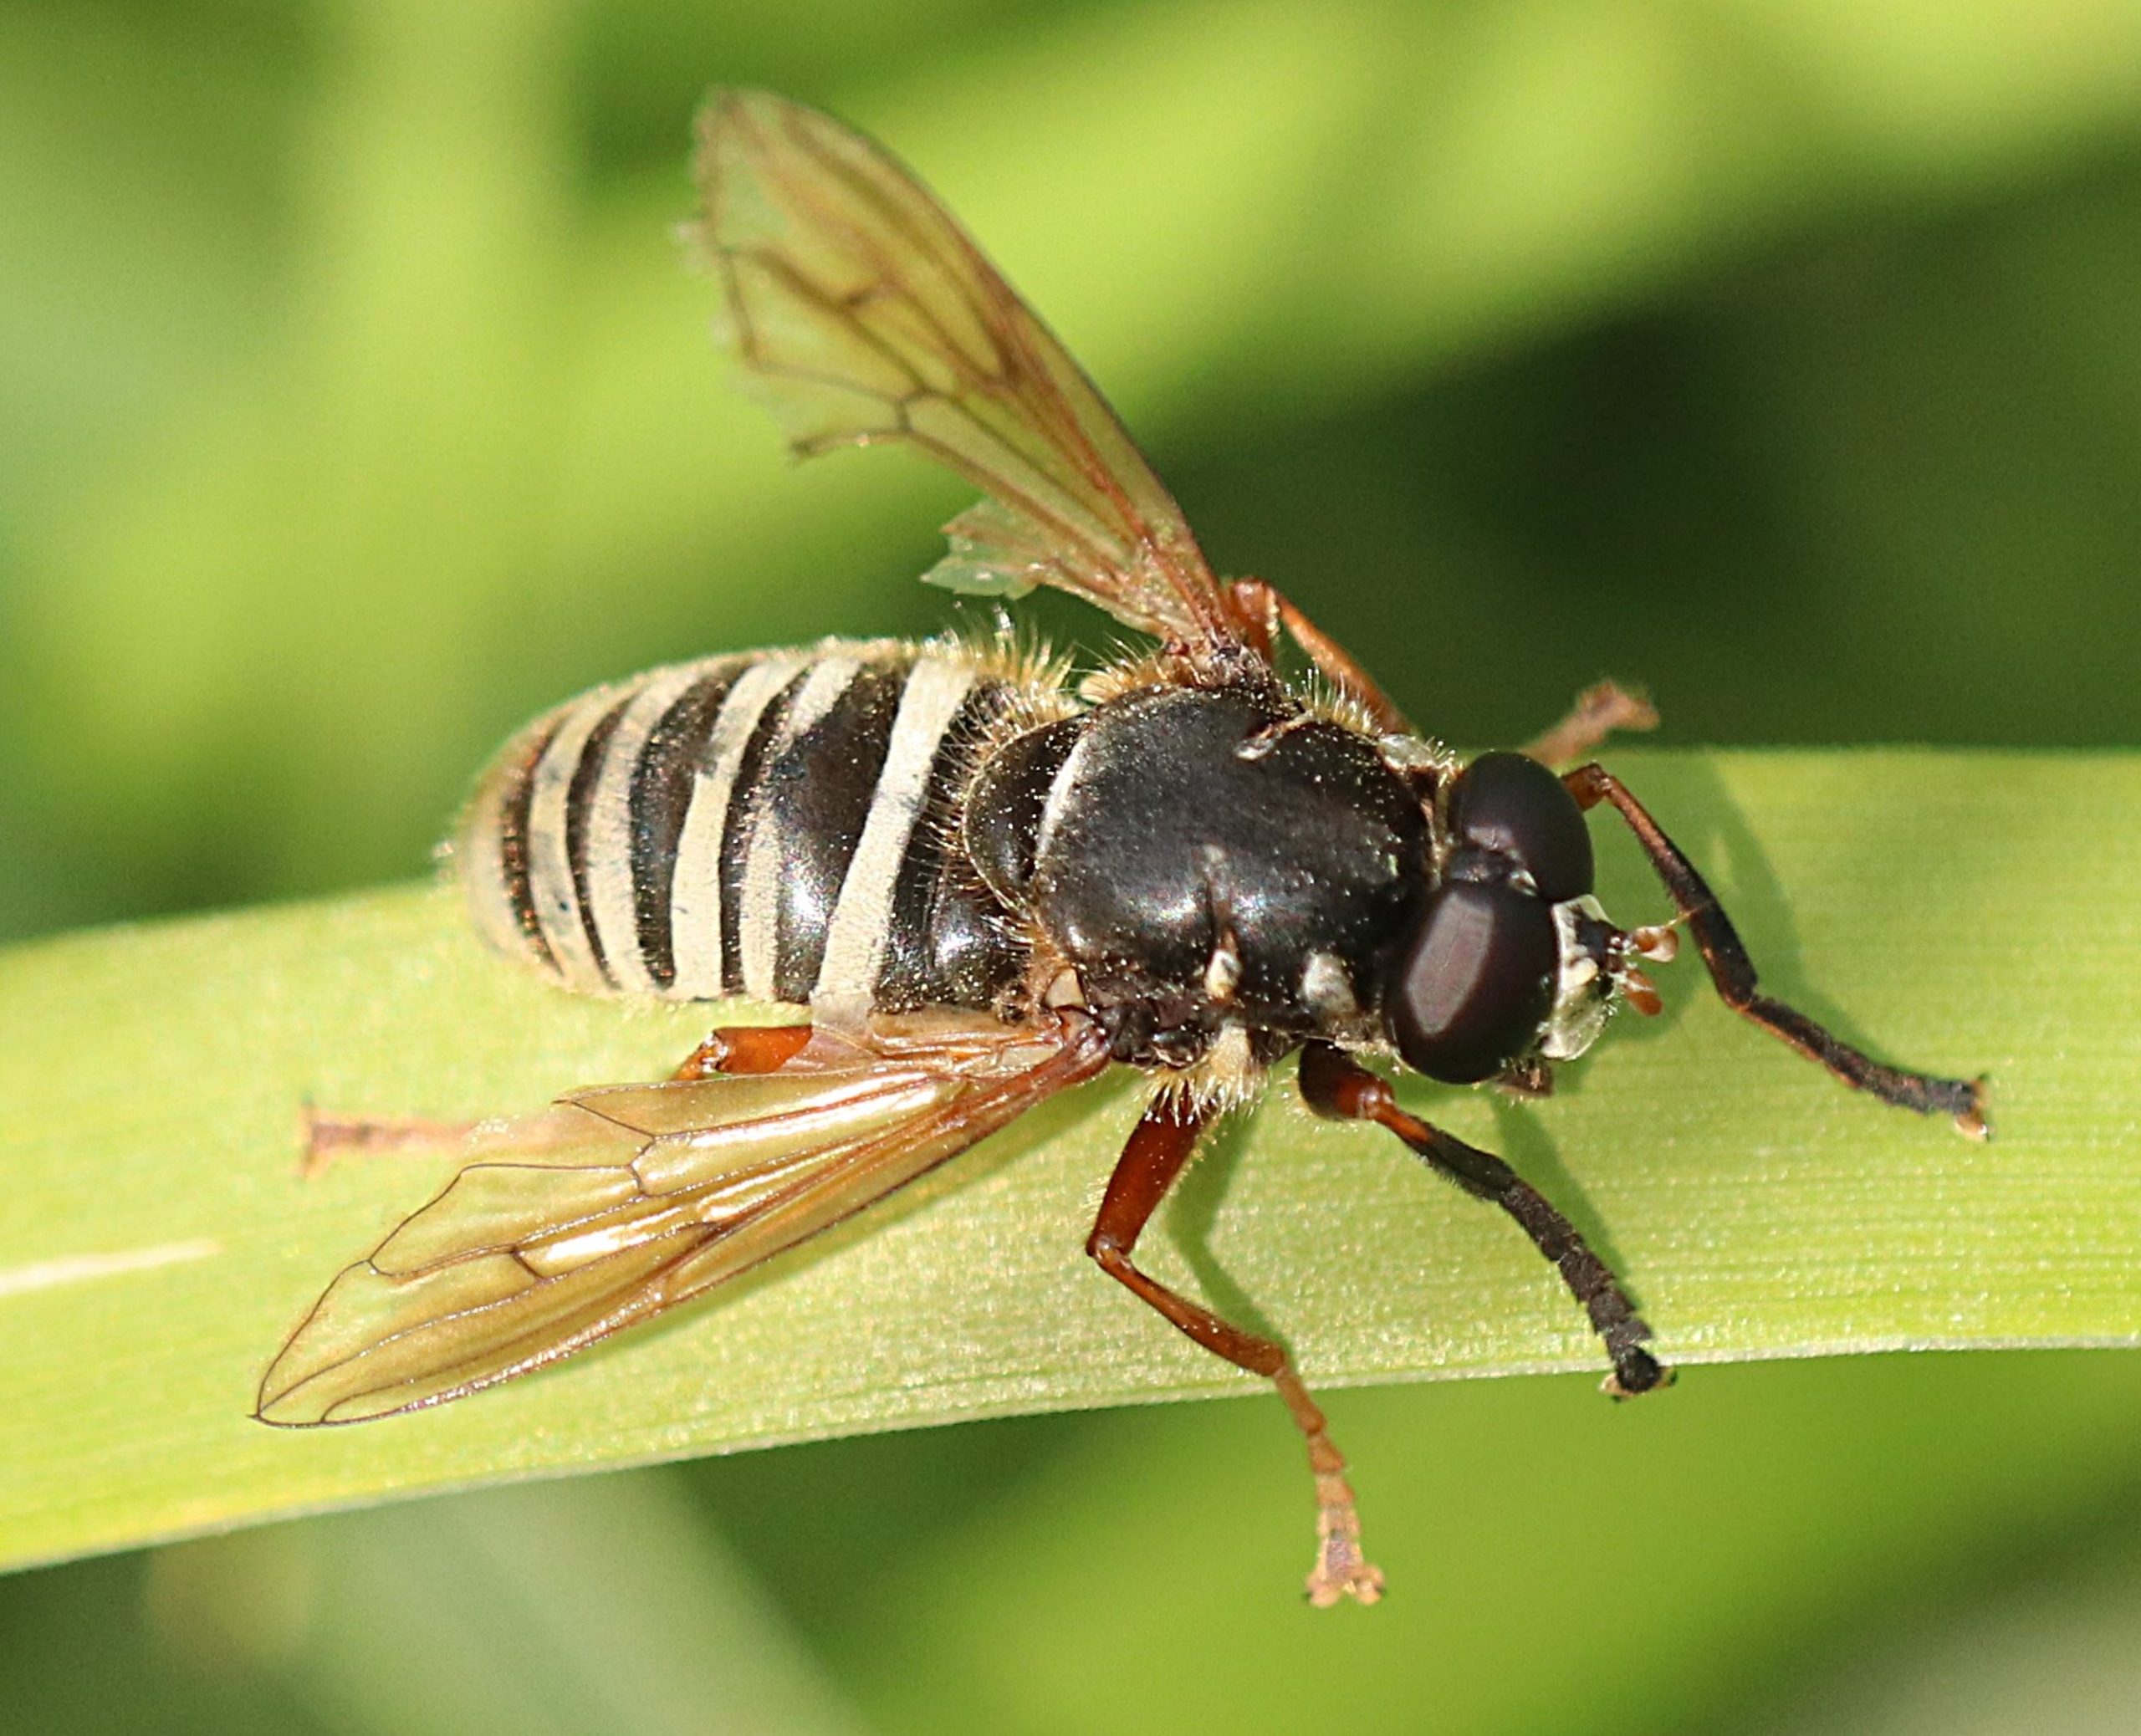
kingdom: Animalia
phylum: Arthropoda
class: Insecta
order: Diptera
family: Syrphidae
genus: Temnostoma
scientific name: Temnostoma apiforme
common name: Bredbåndet vedsvirreflue
